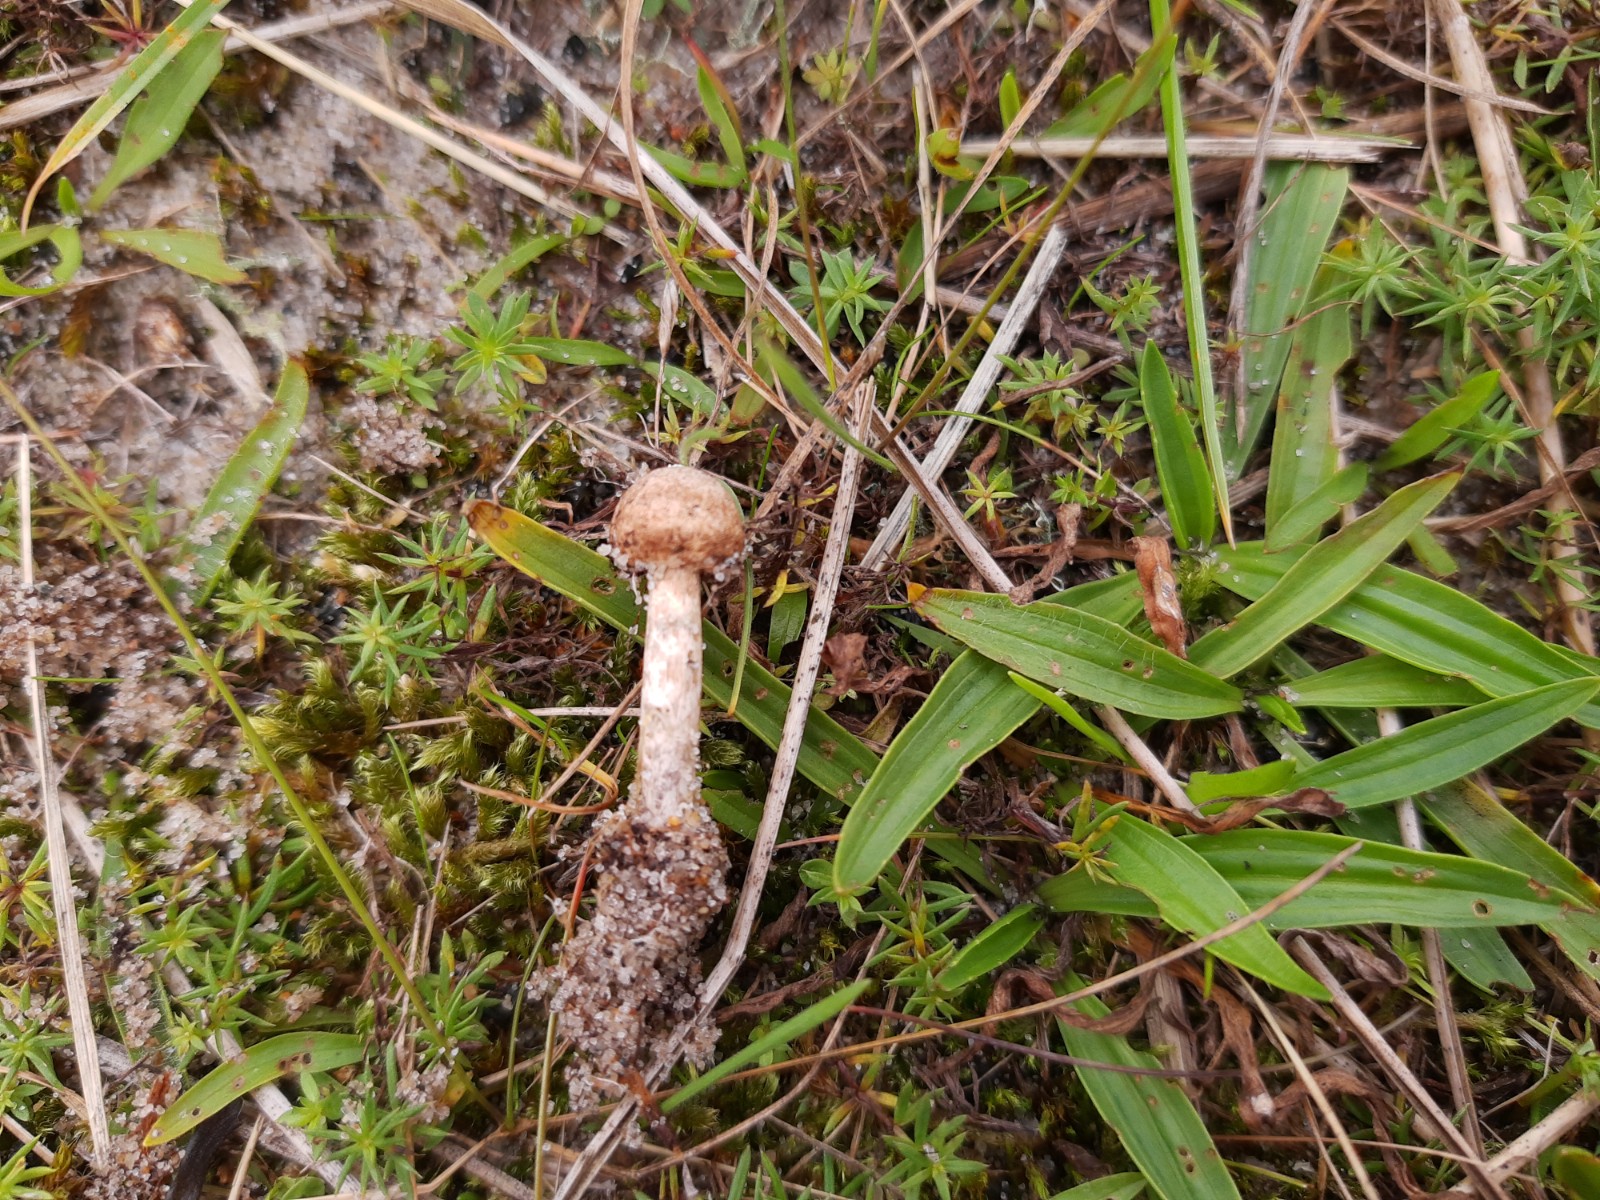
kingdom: Fungi
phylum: Basidiomycota
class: Agaricomycetes
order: Agaricales
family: Agaricaceae
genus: Tulostoma
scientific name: Tulostoma brumale
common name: vinter-stilkbovist
